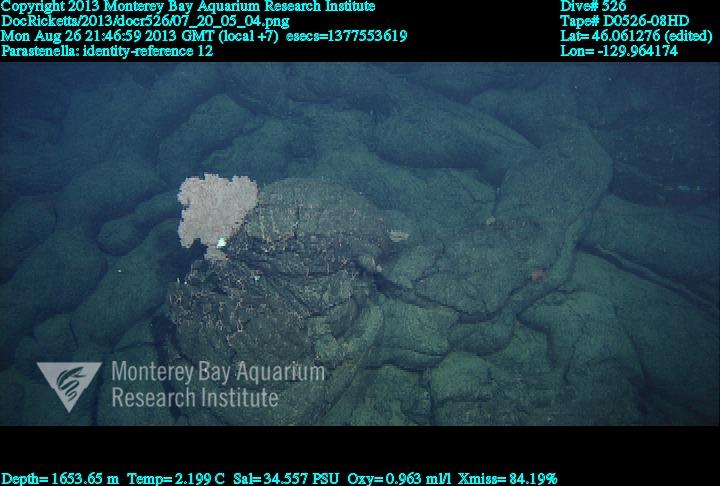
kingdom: Animalia
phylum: Cnidaria
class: Anthozoa
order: Scleralcyonacea
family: Primnoidae
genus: Parastenella
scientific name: Parastenella
